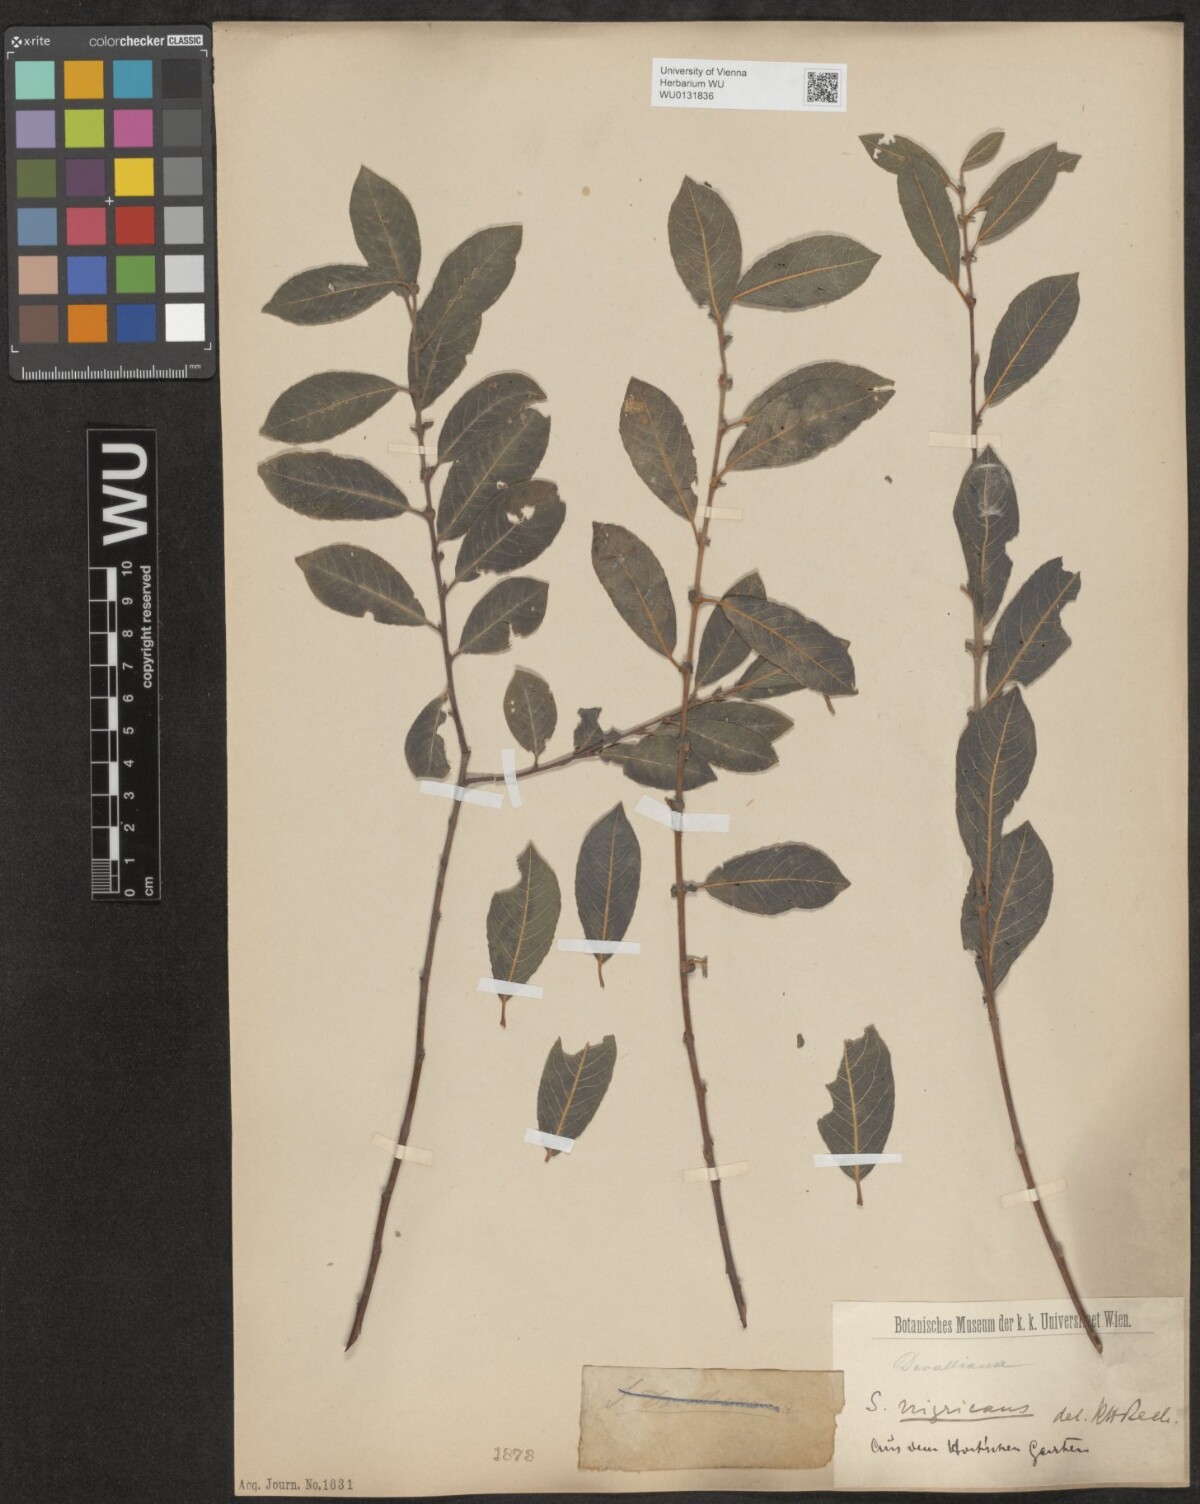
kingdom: Plantae
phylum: Tracheophyta
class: Magnoliopsida
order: Malpighiales
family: Salicaceae
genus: Salix
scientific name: Salix myrsinifolia
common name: Dark-leaved willow
